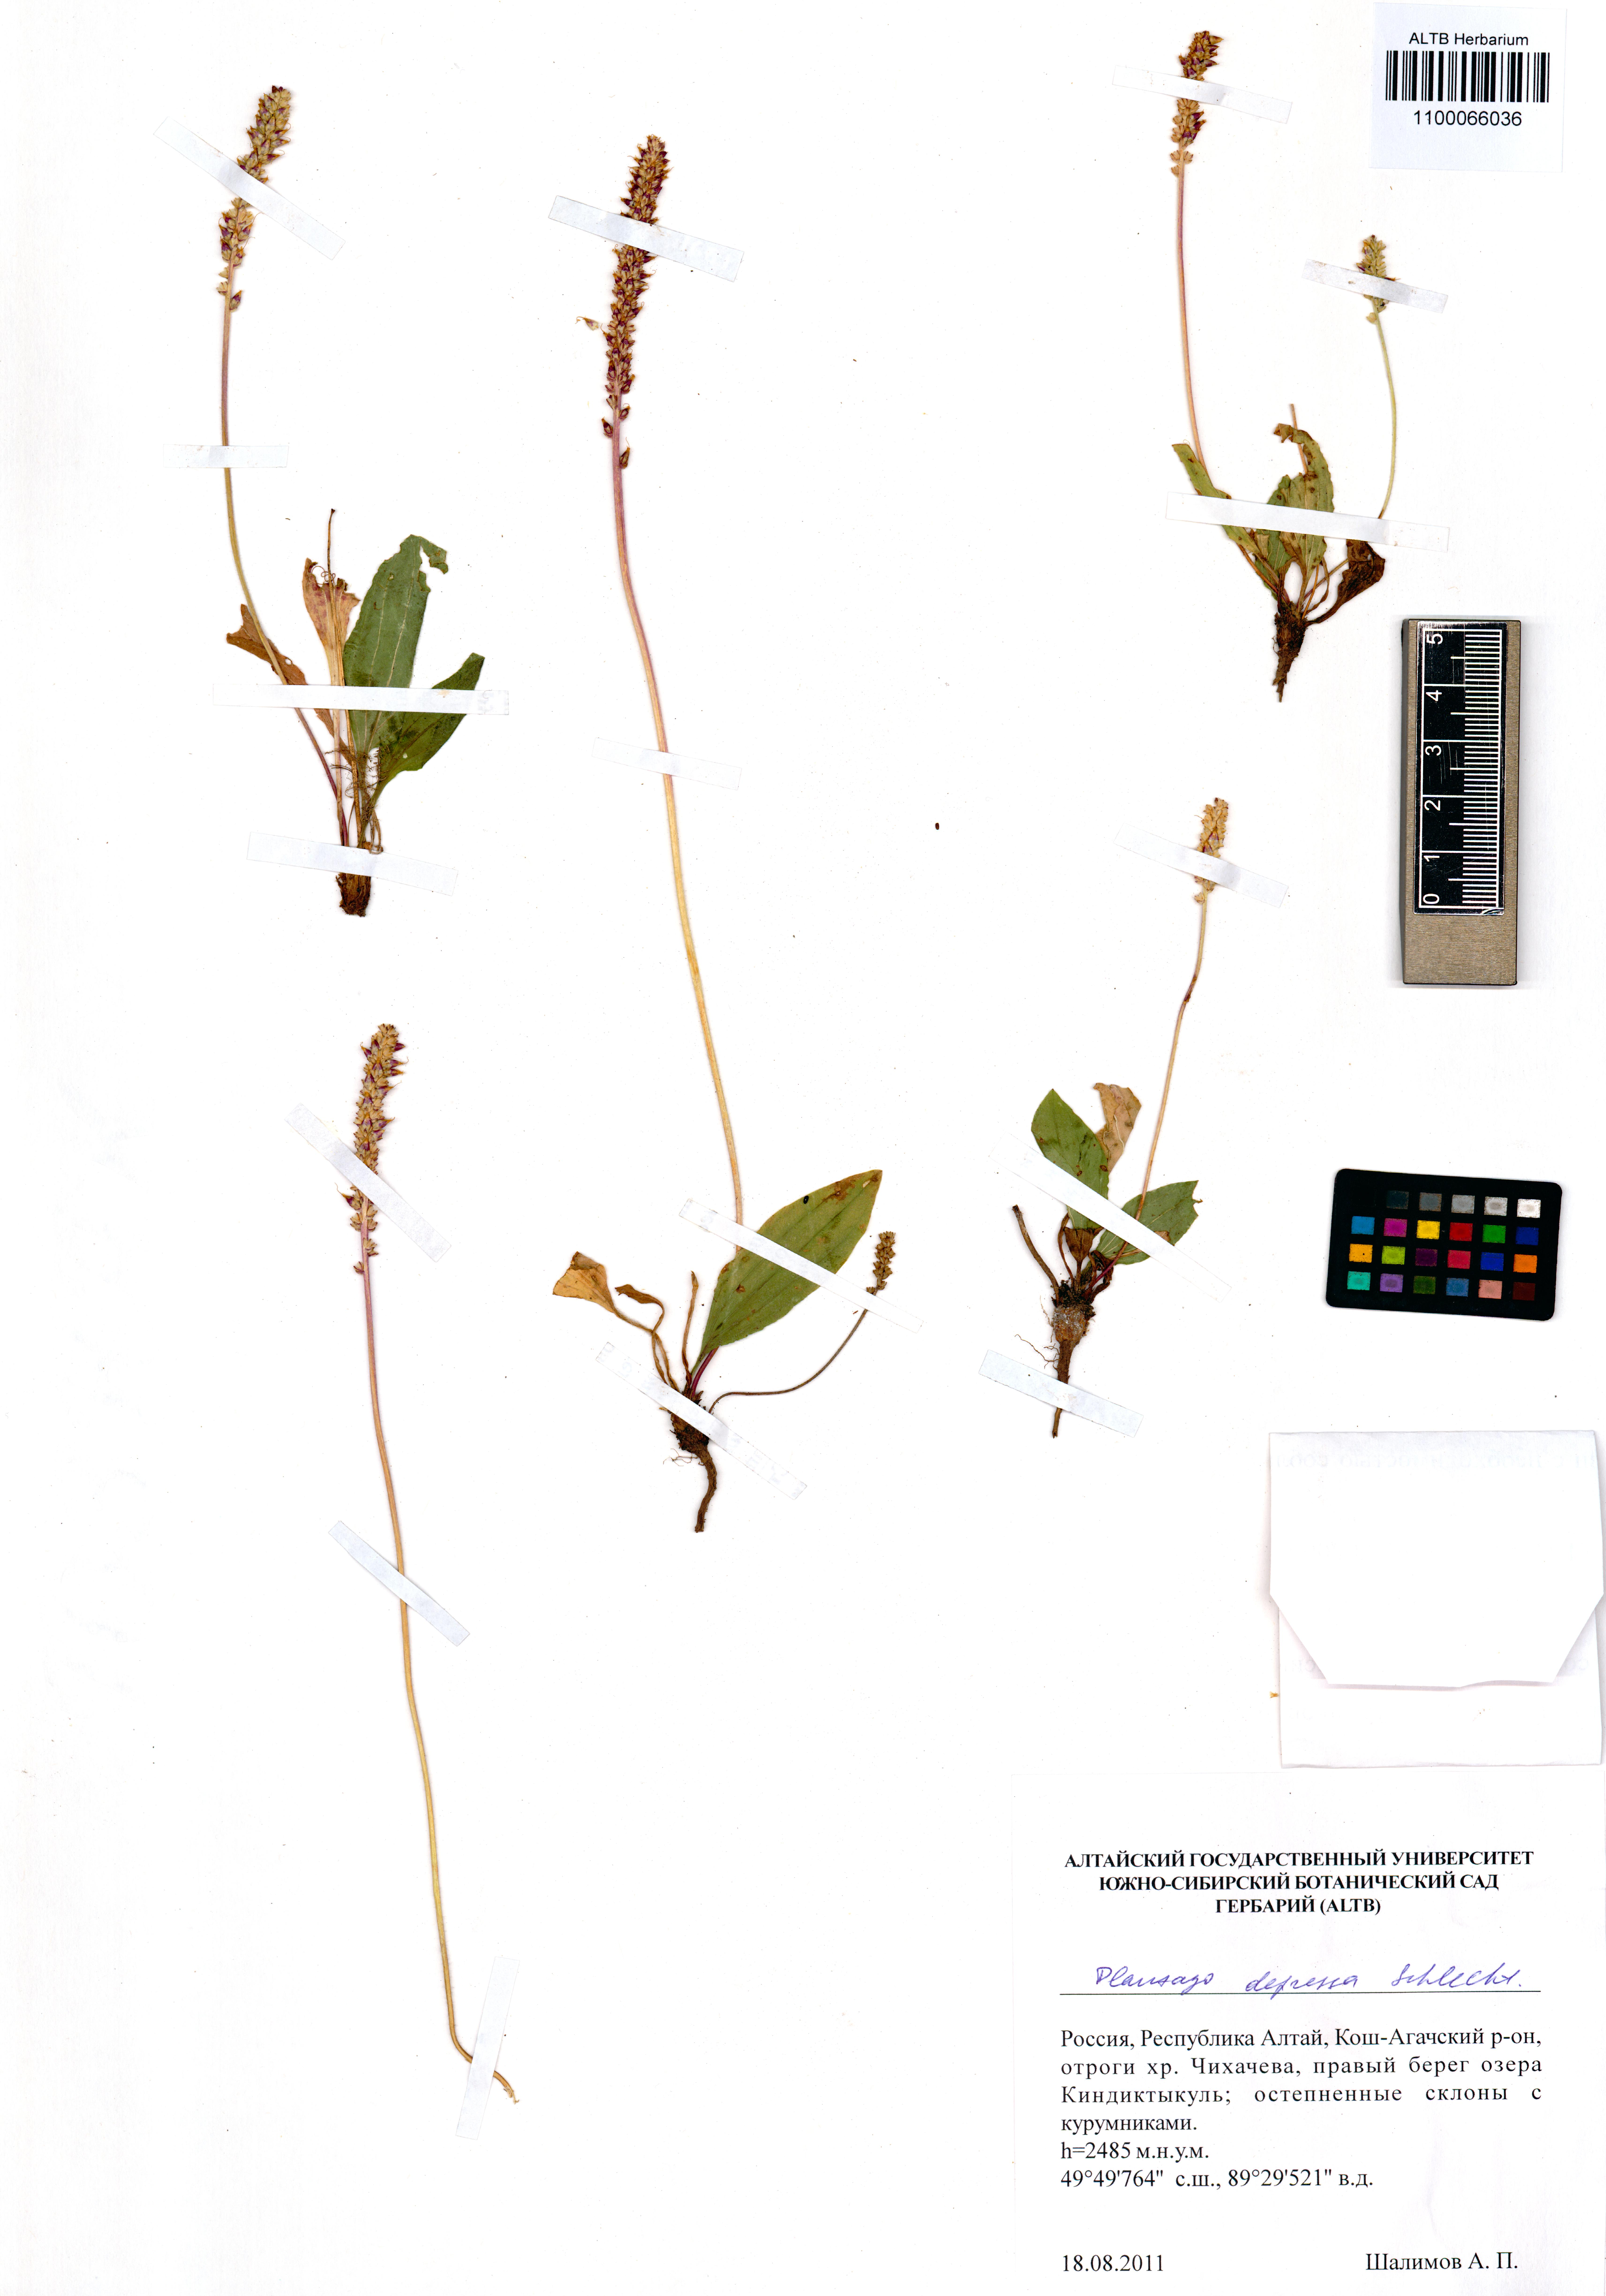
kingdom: Plantae
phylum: Tracheophyta
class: Magnoliopsida
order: Lamiales
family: Plantaginaceae
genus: Plantago
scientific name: Plantago depressa
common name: Depressed plantain
